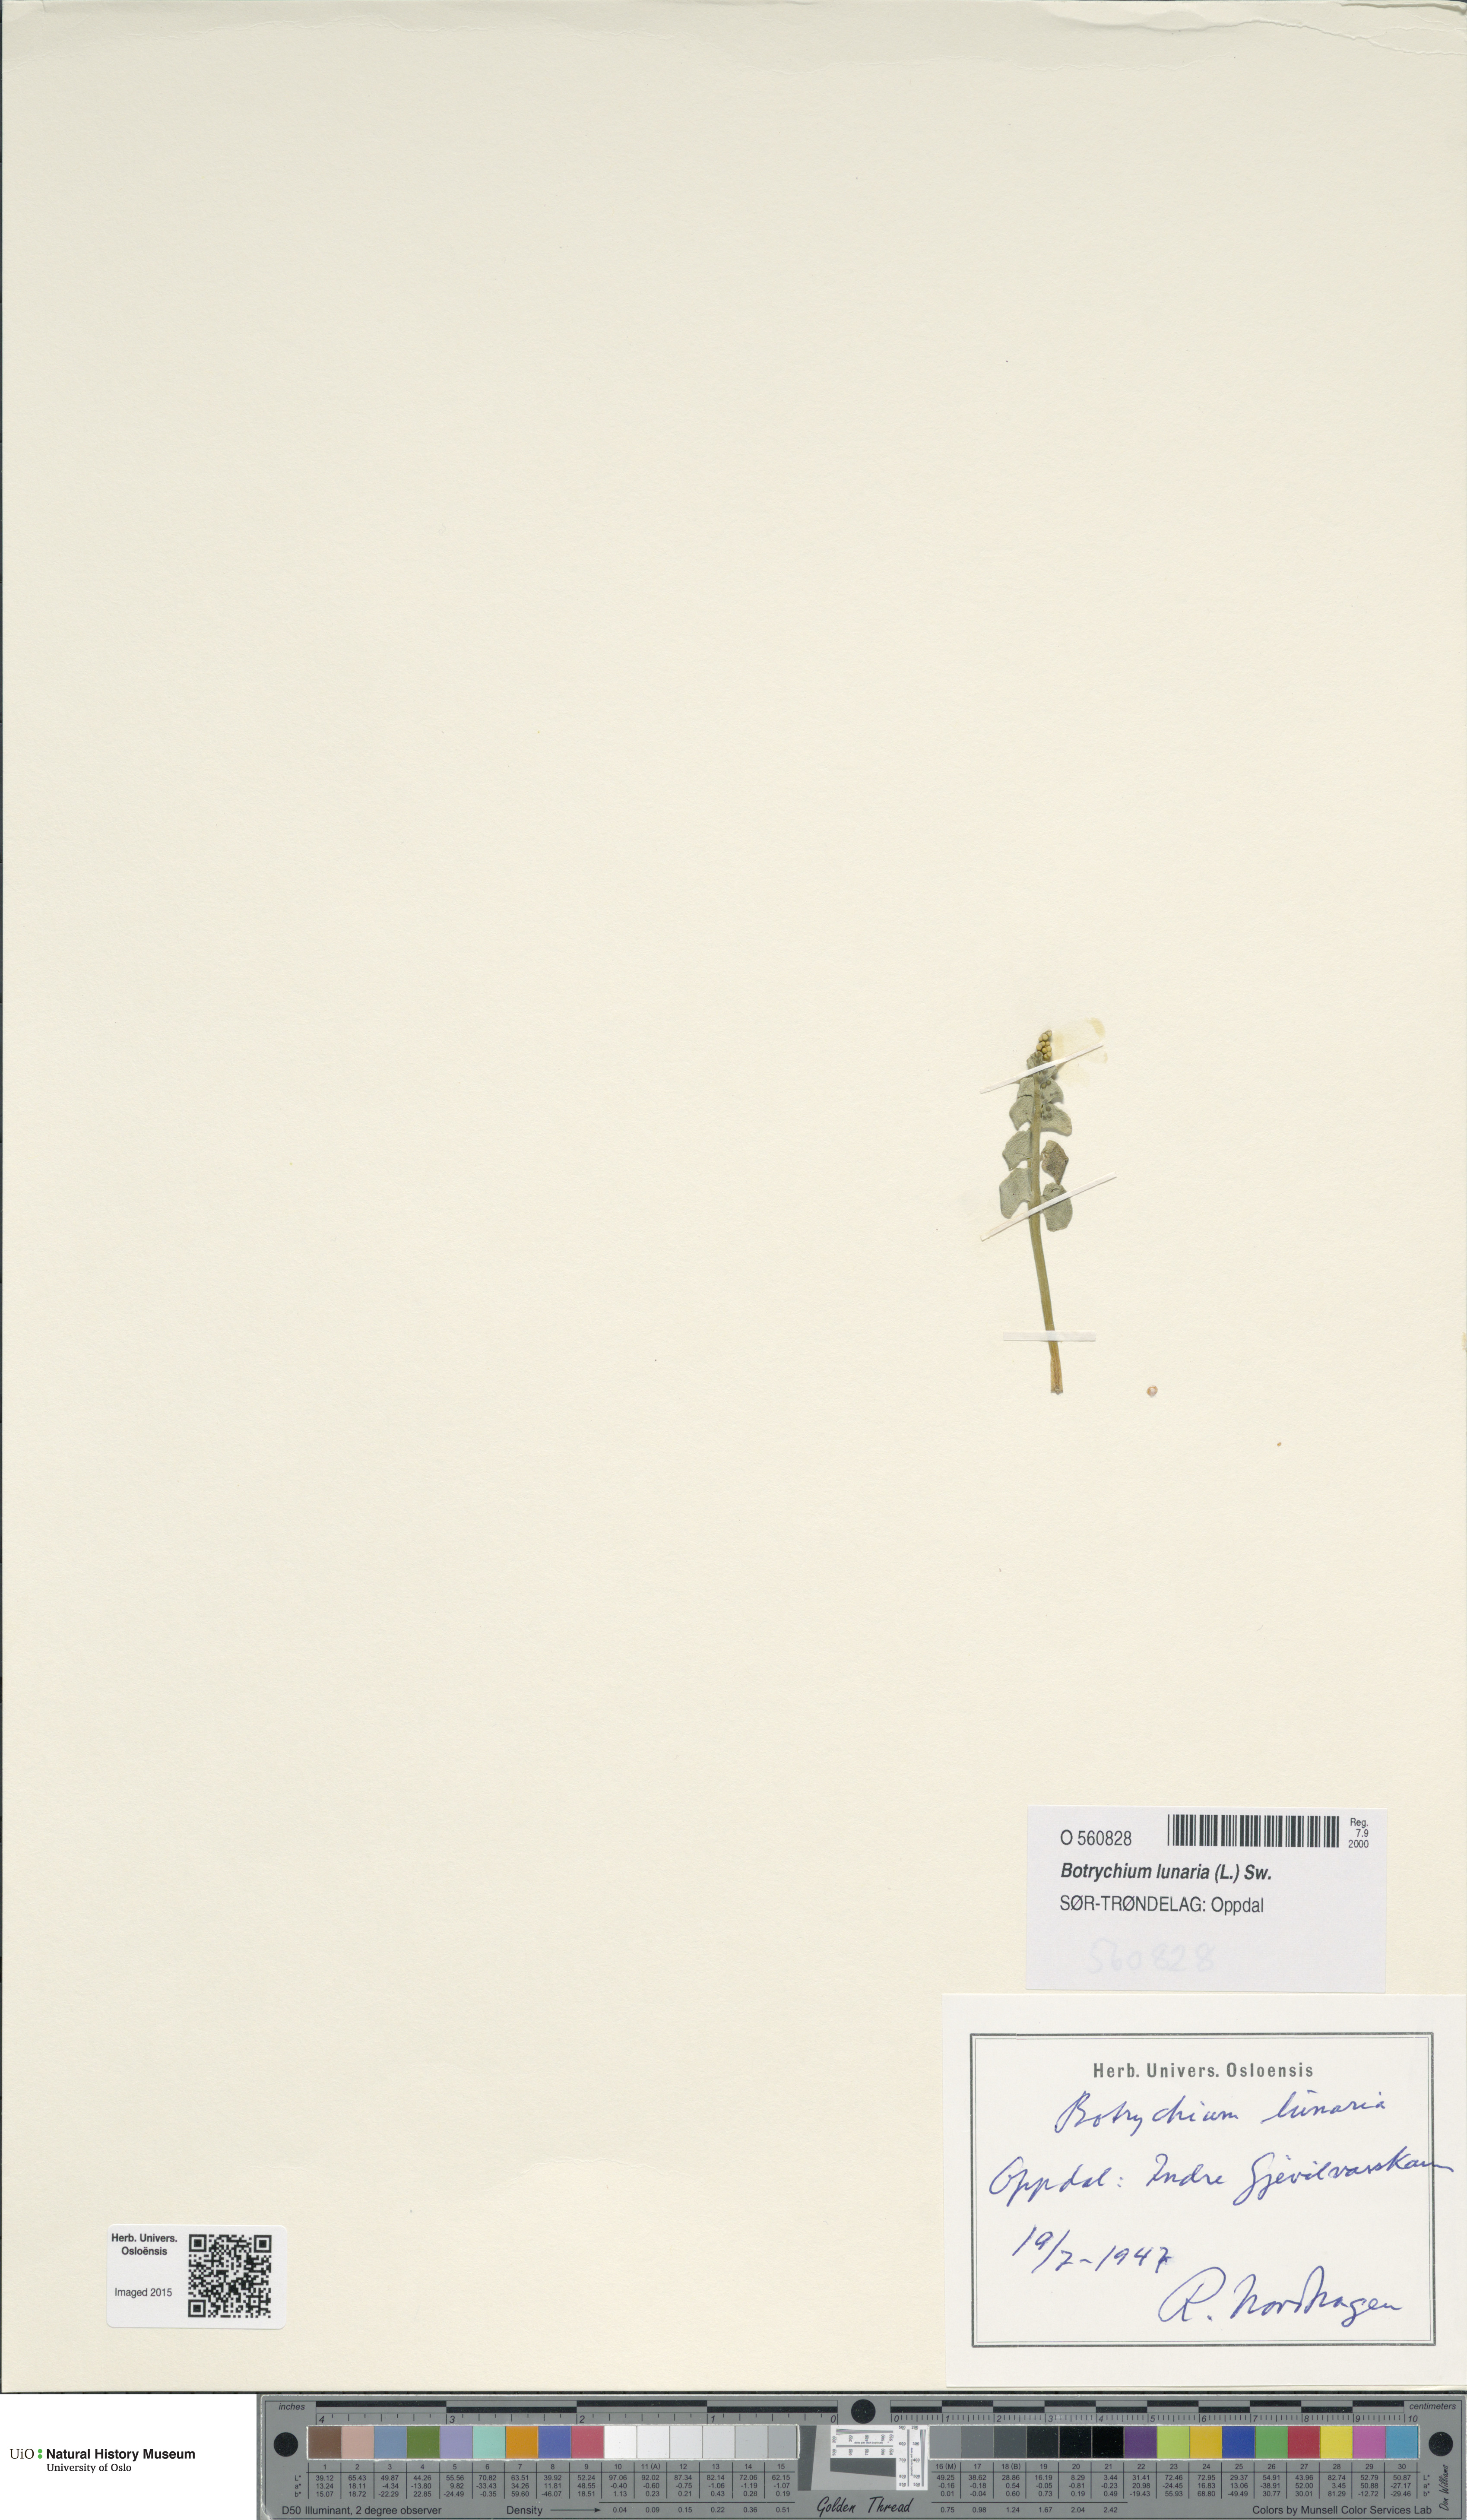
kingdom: Plantae
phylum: Tracheophyta
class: Polypodiopsida
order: Ophioglossales
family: Ophioglossaceae
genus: Botrychium
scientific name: Botrychium lunaria
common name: Moonwort
